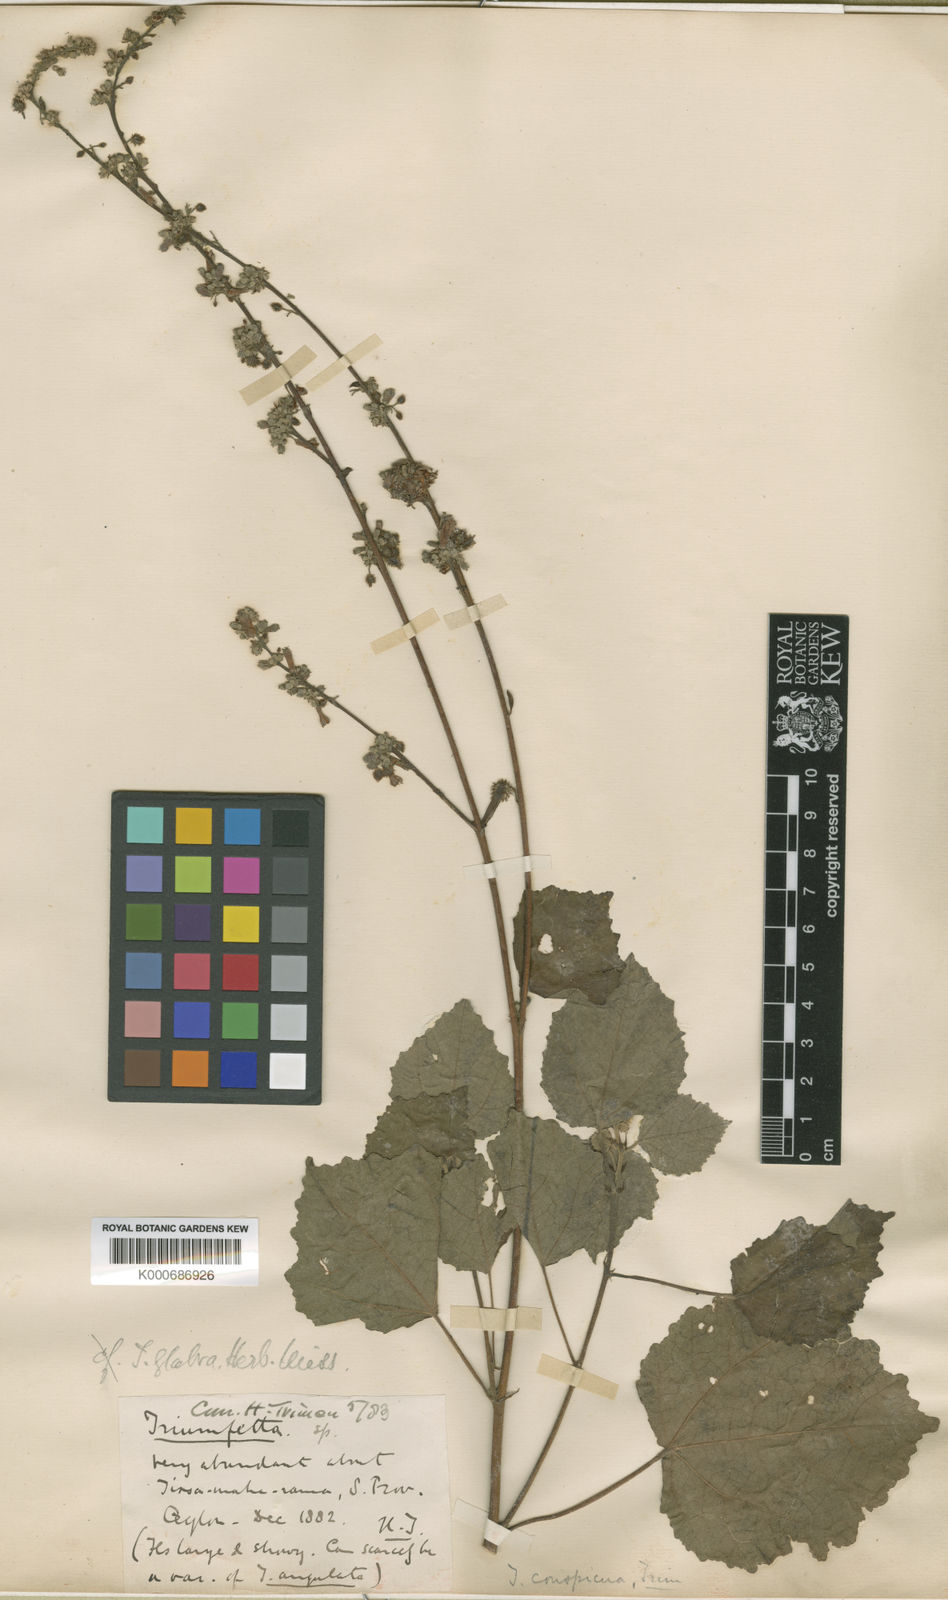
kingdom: Plantae
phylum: Tracheophyta
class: Magnoliopsida
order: Malvales
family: Malvaceae
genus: Triumfetta
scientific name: Triumfetta glabra
